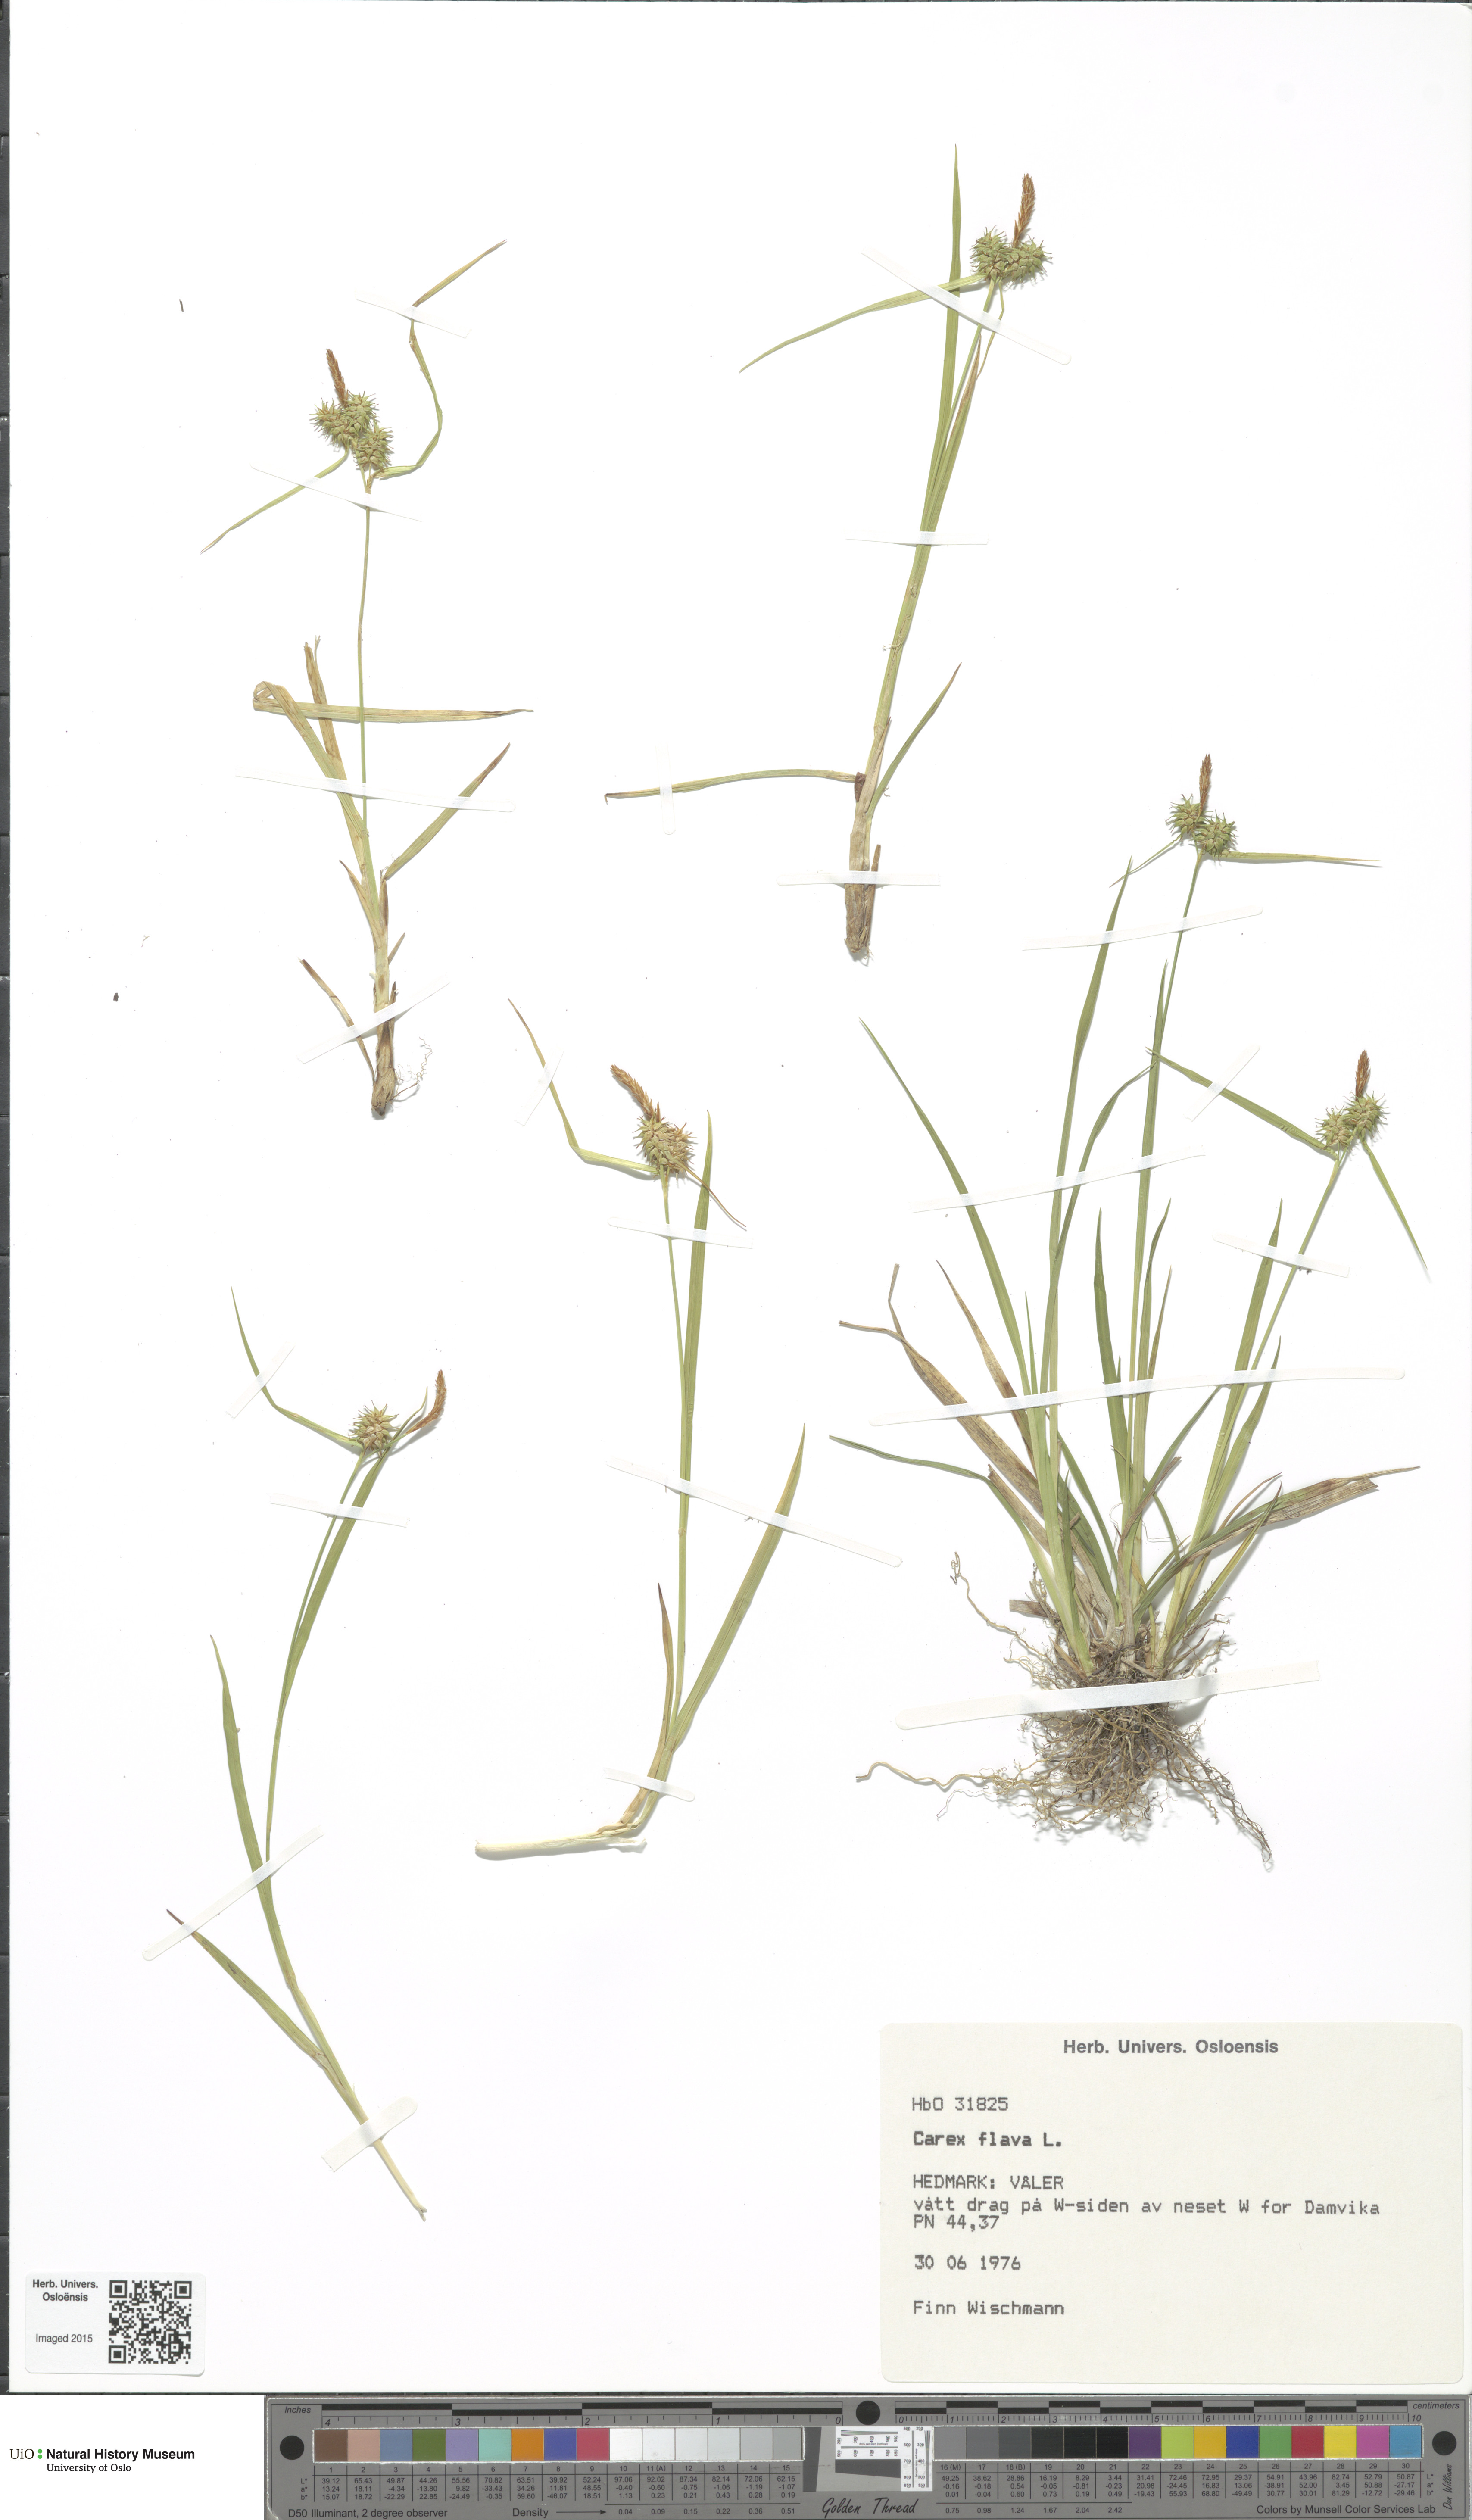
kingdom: Plantae
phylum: Tracheophyta
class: Liliopsida
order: Poales
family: Cyperaceae
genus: Carex
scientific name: Carex flava
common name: Large yellow-sedge
